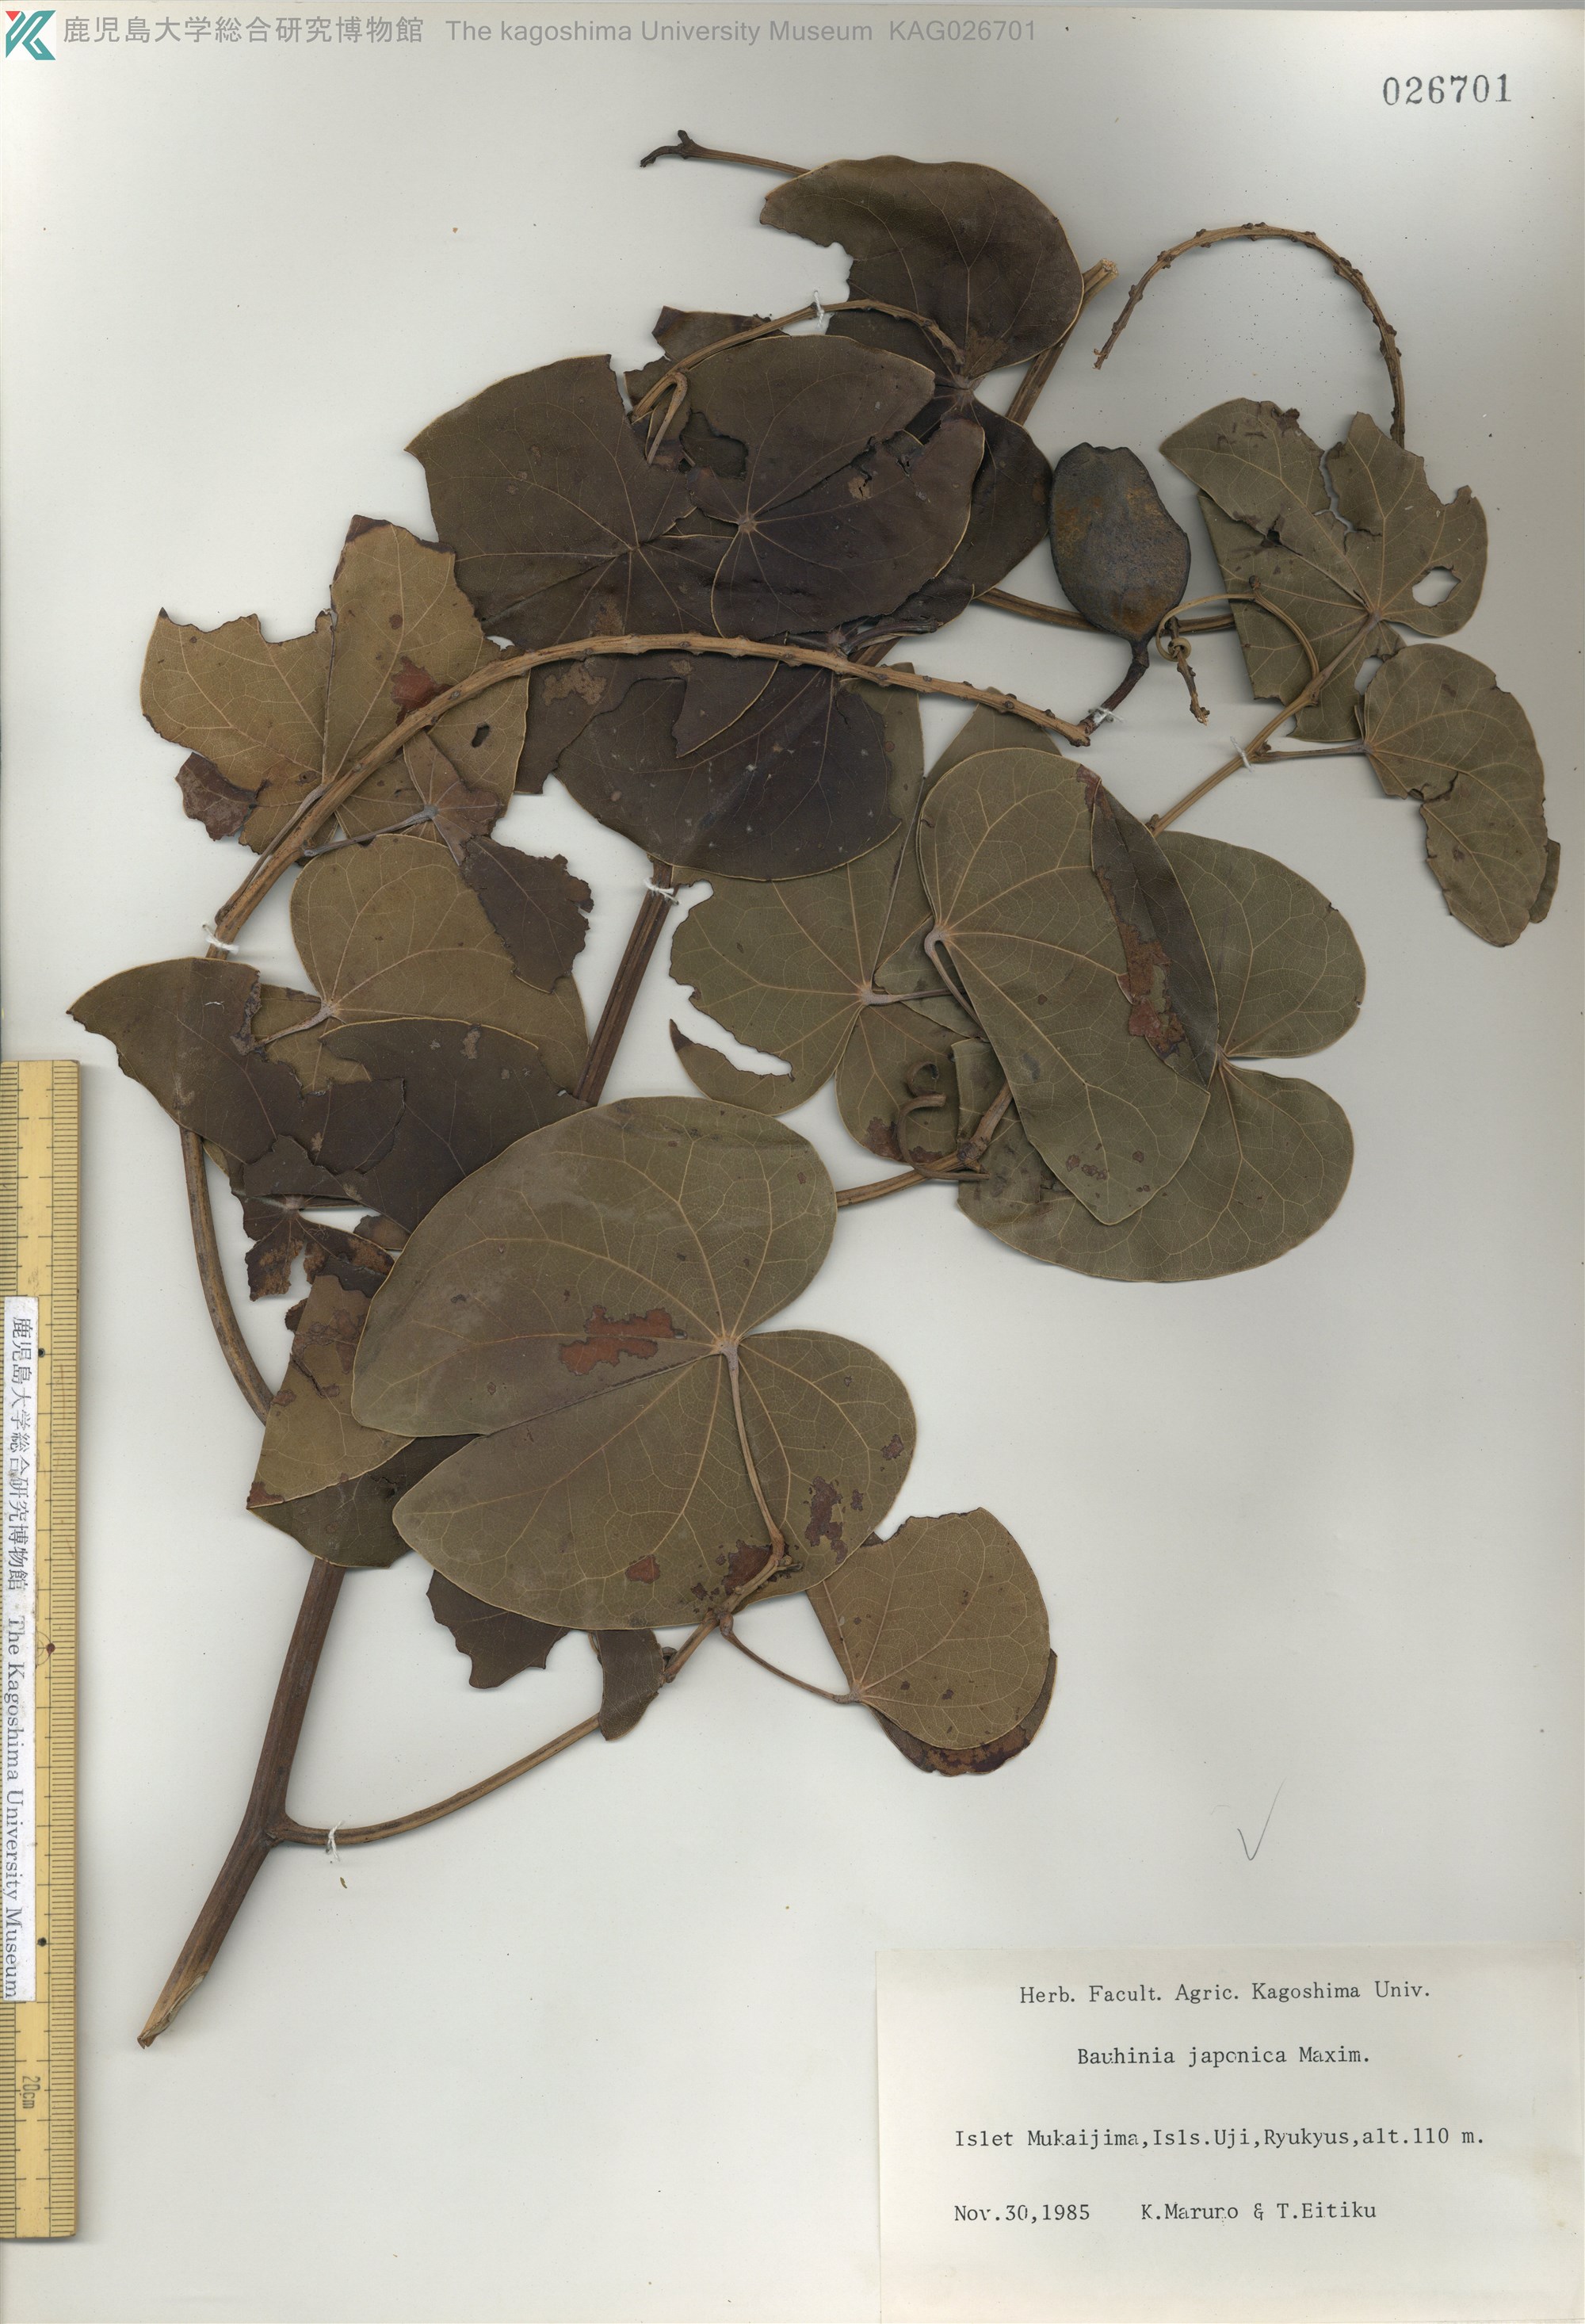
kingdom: Plantae
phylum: Tracheophyta
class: Magnoliopsida
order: Fabales
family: Fabaceae
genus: Phanera
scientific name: Phanera japonica
